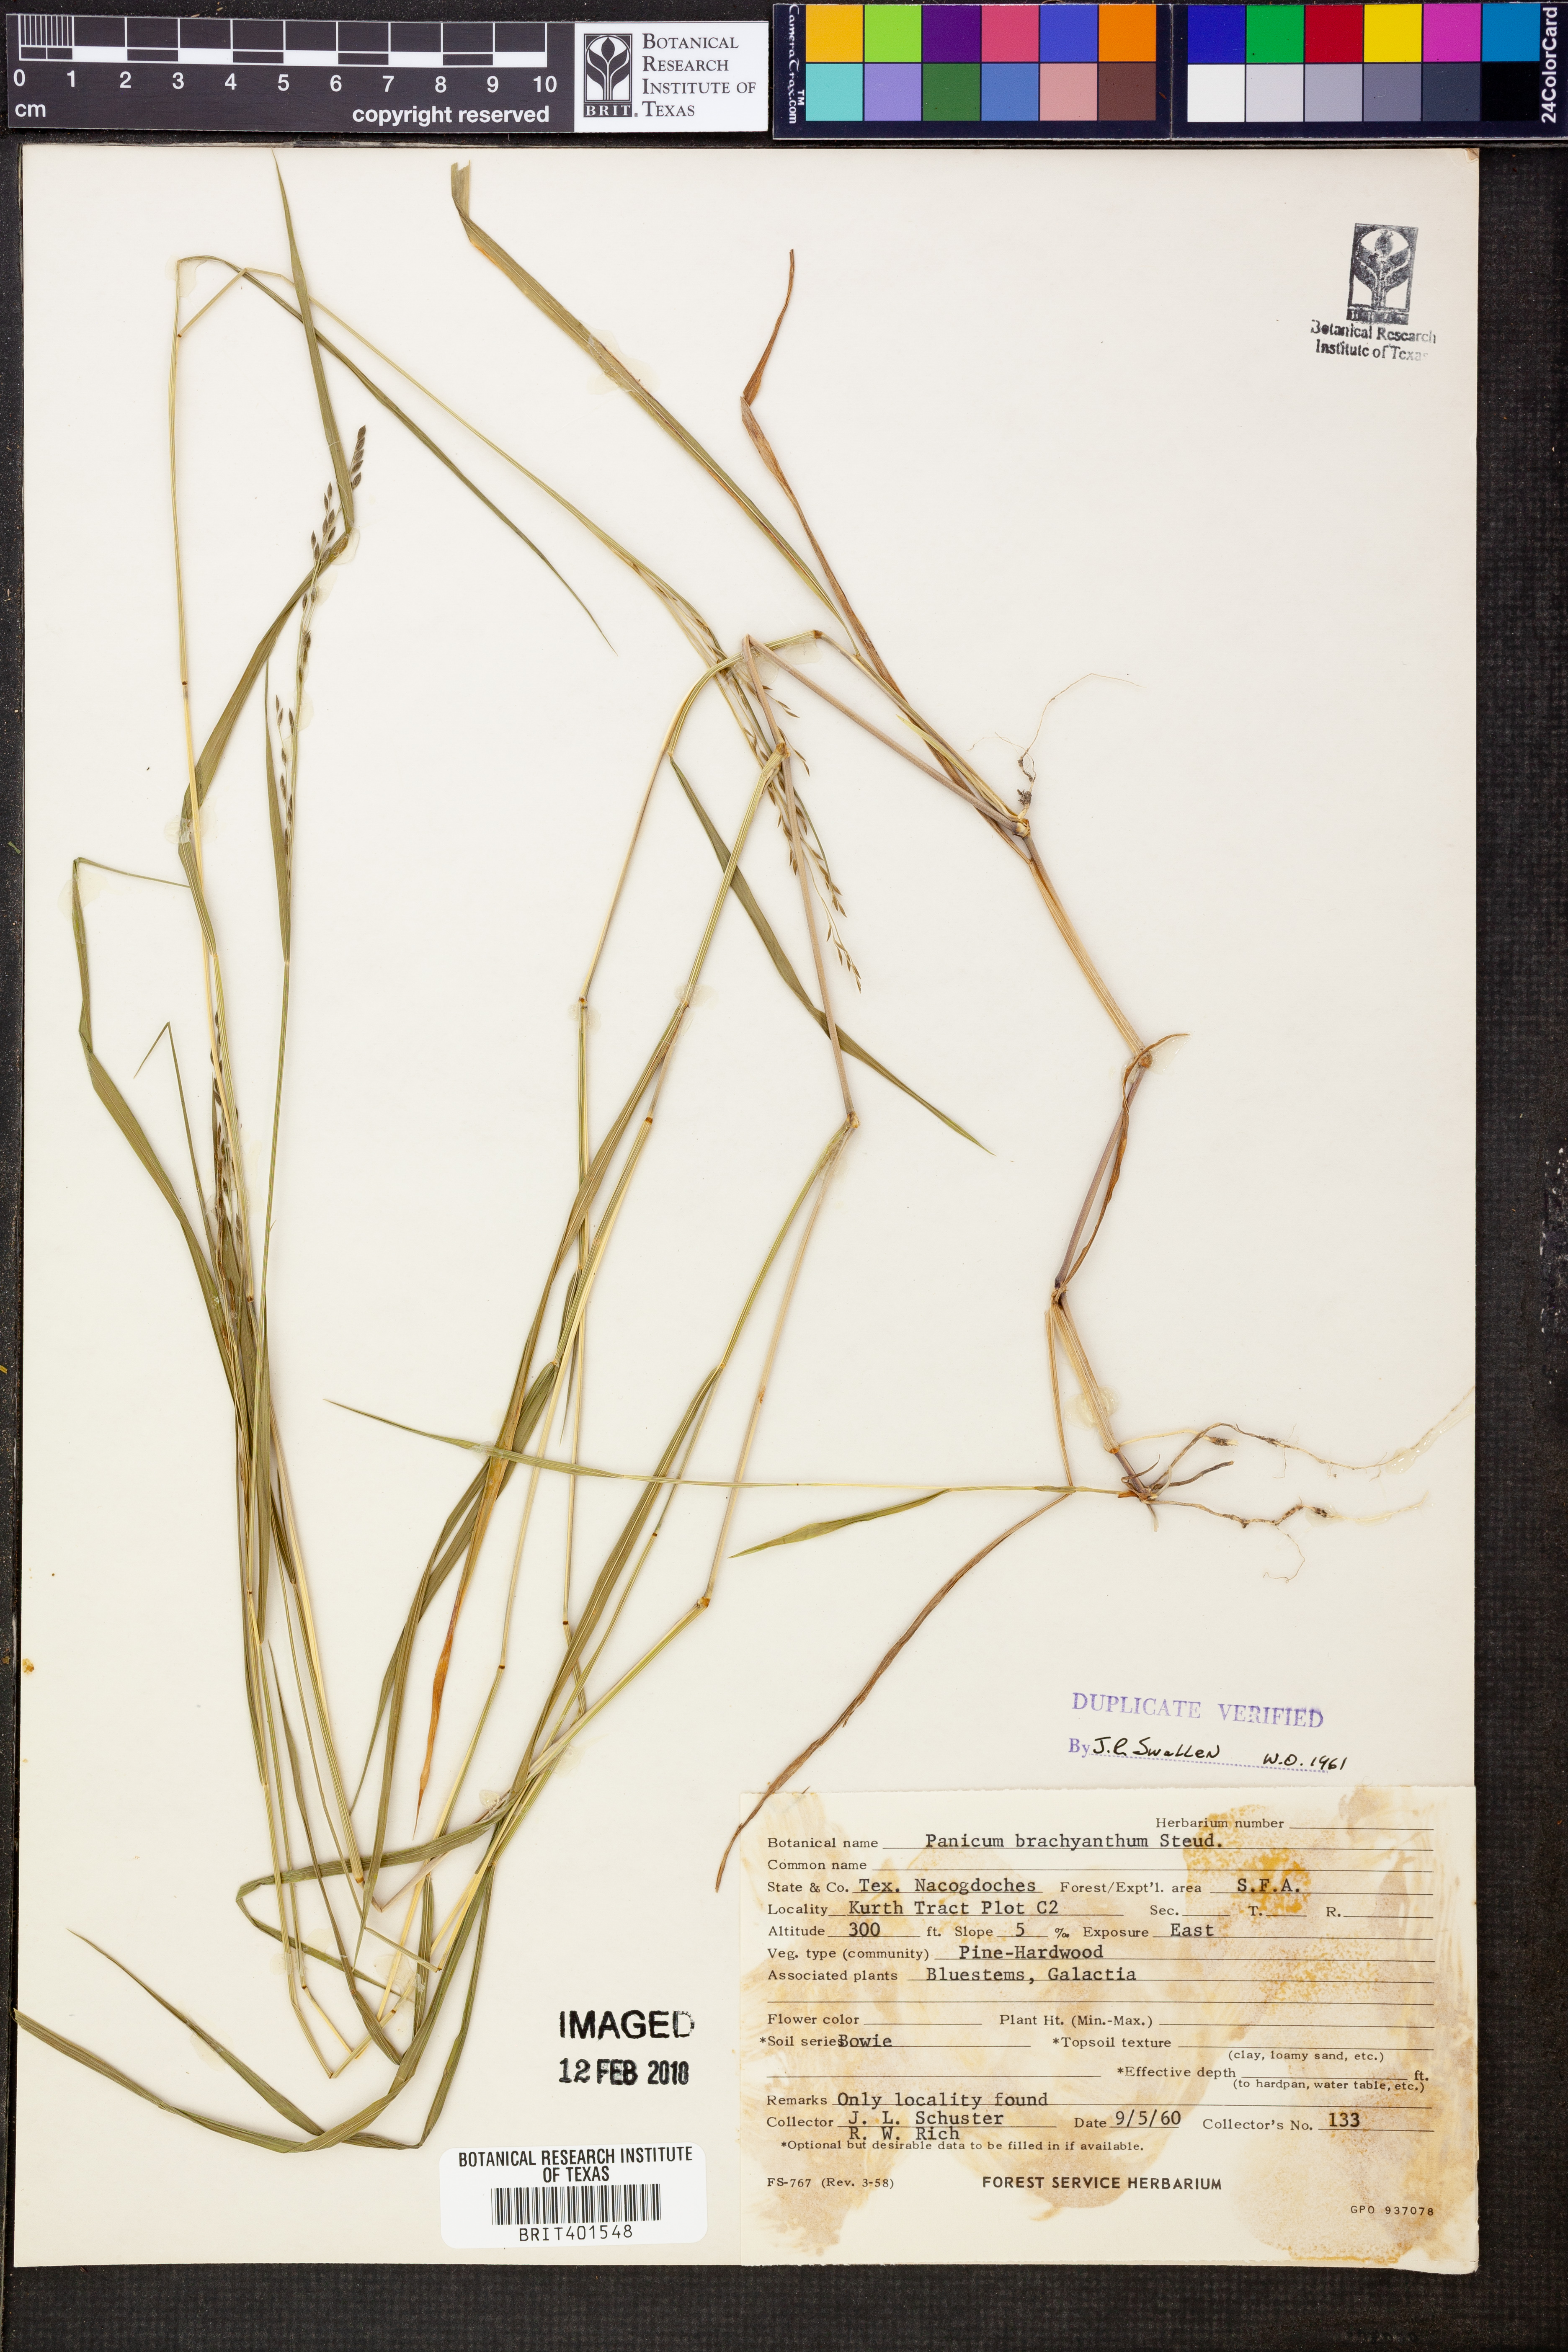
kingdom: Plantae
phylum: Tracheophyta
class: Liliopsida
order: Poales
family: Poaceae
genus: Kellochloa
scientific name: Kellochloa brachyantha
